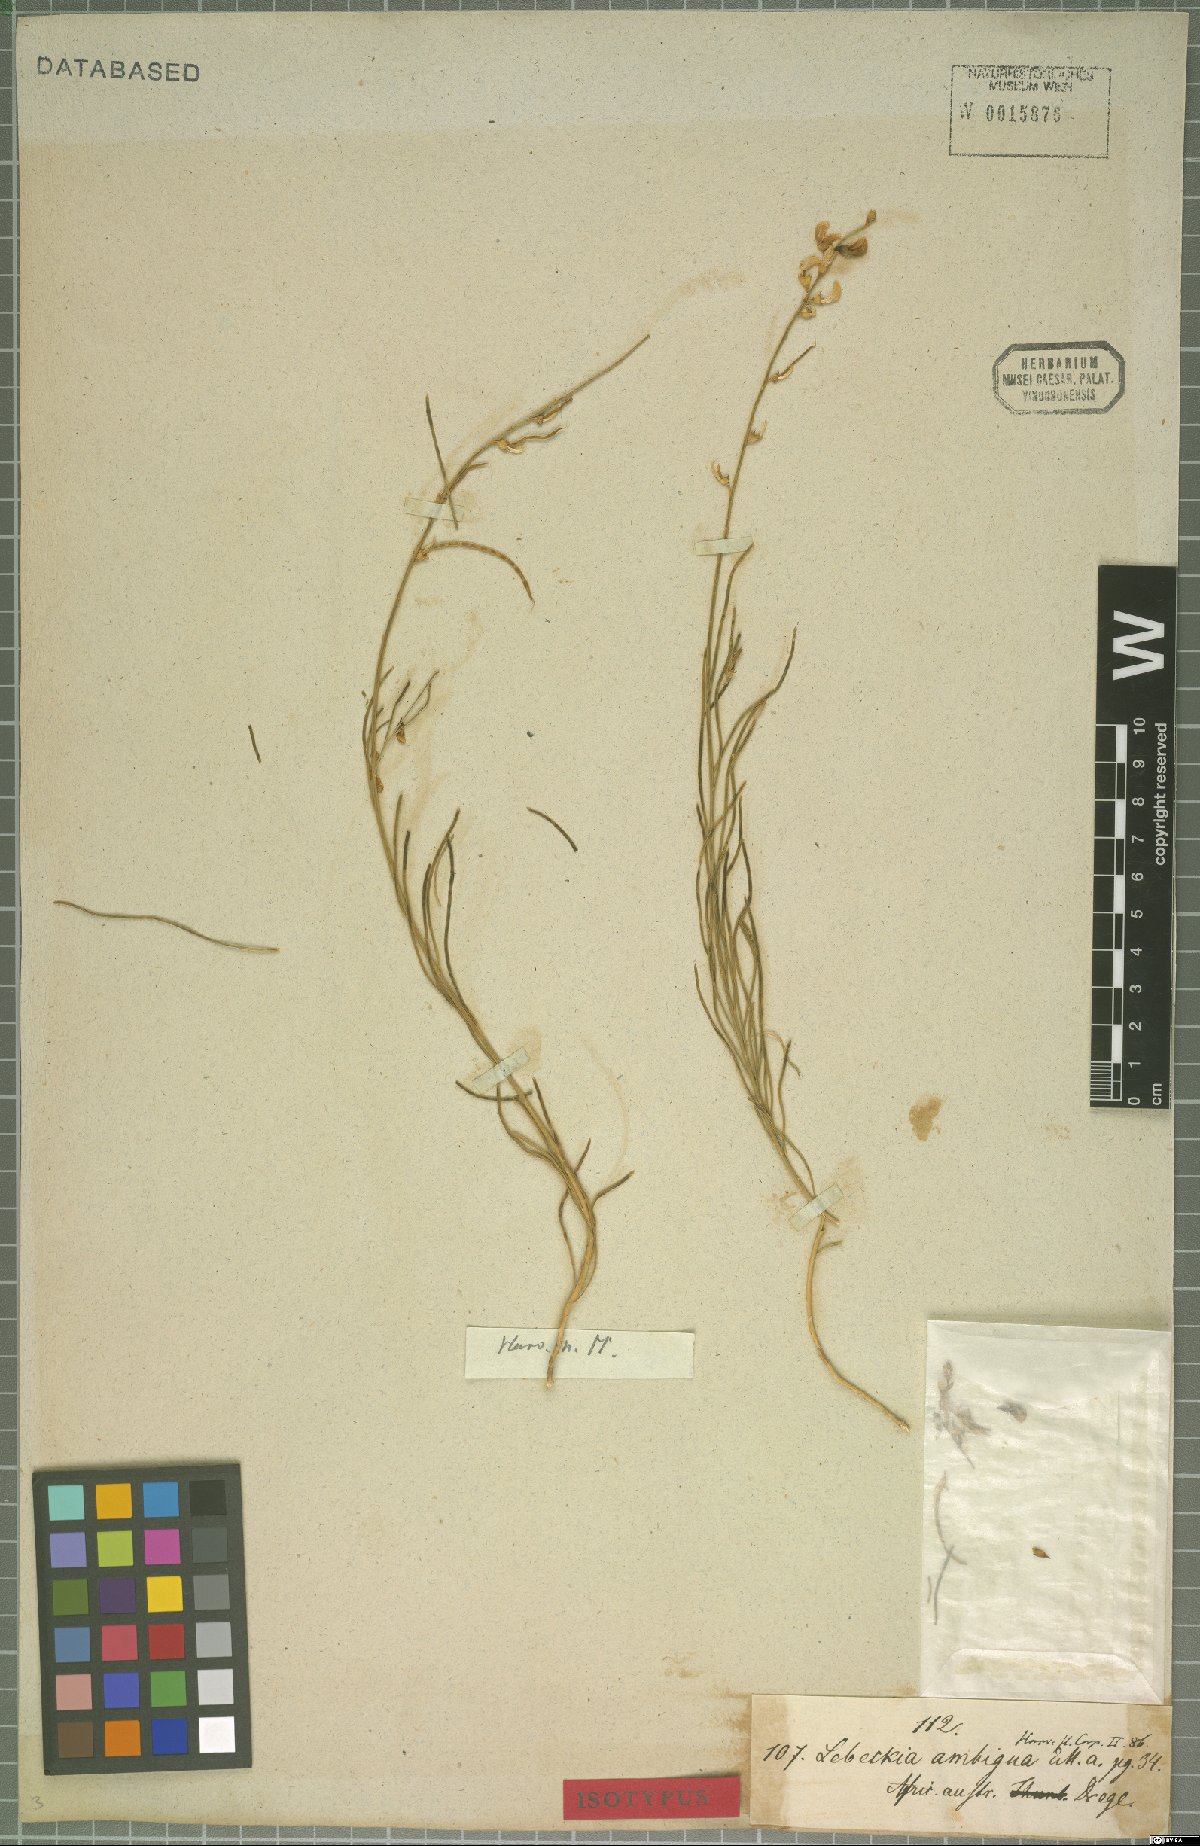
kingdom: Plantae
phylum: Tracheophyta
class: Magnoliopsida
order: Fabales
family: Fabaceae
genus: Lebeckia
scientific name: Lebeckia ambigua
